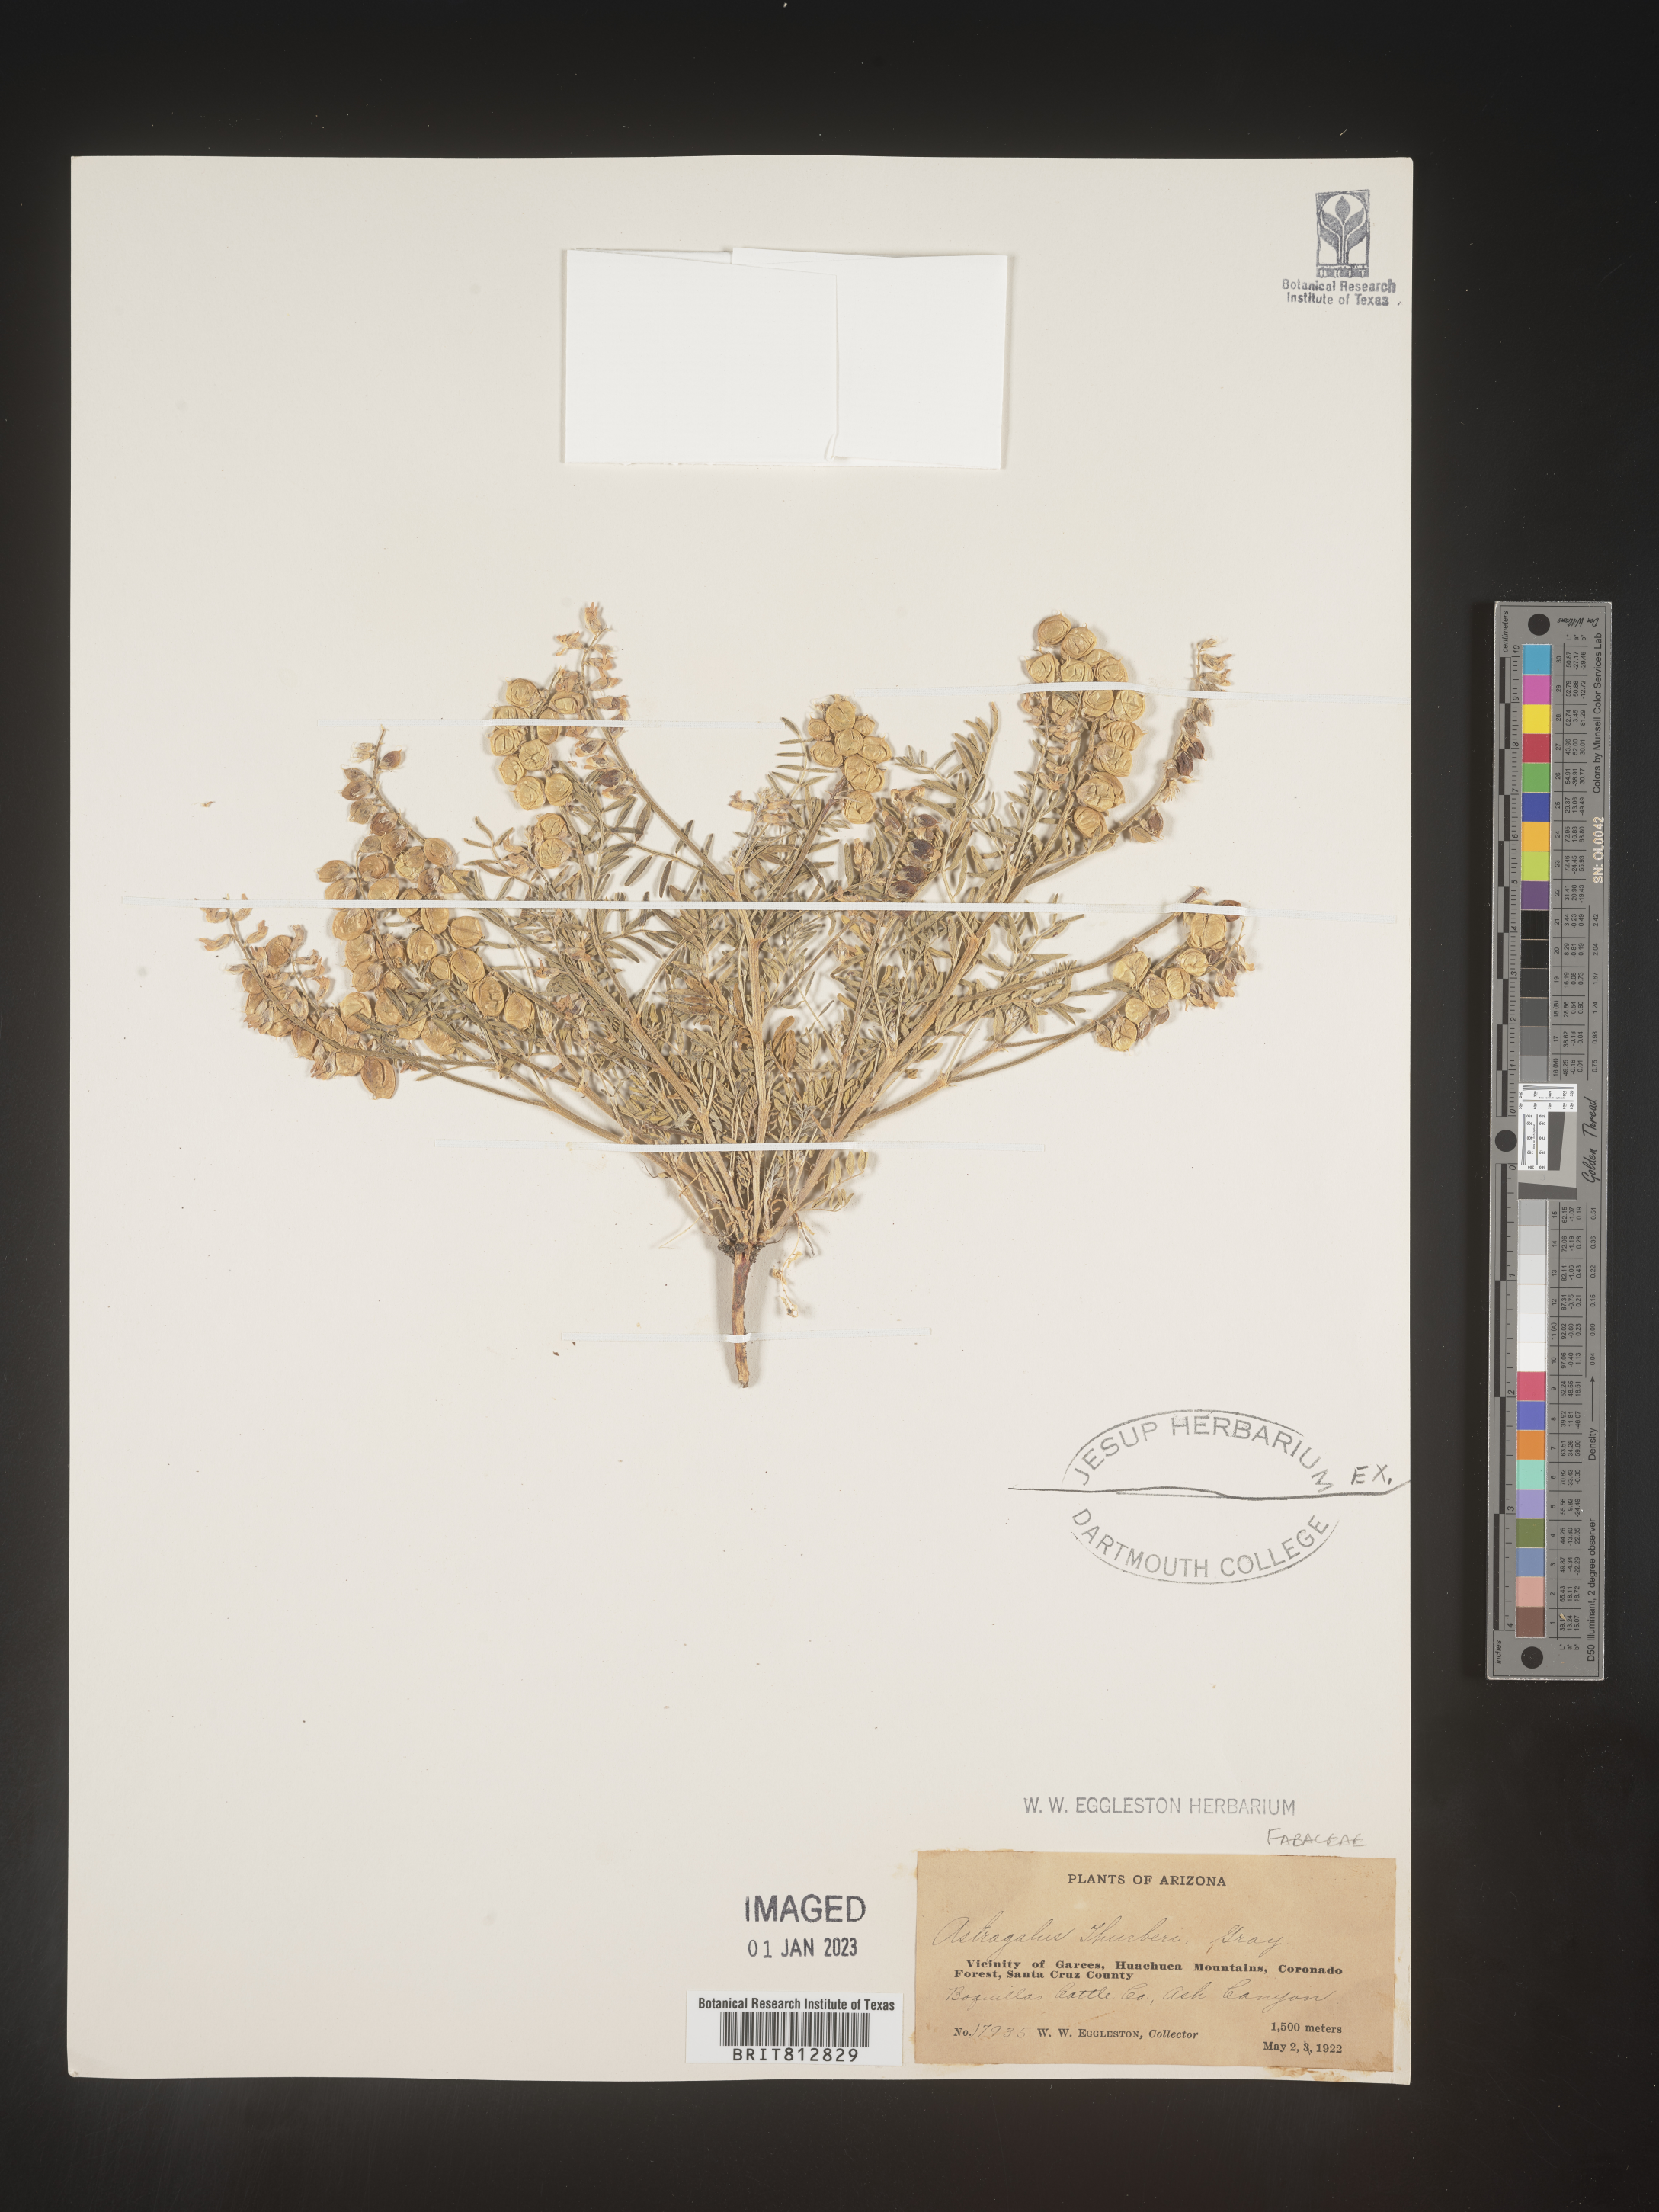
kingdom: Plantae
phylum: Tracheophyta
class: Magnoliopsida
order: Fabales
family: Fabaceae
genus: Astragalus
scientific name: Astragalus
